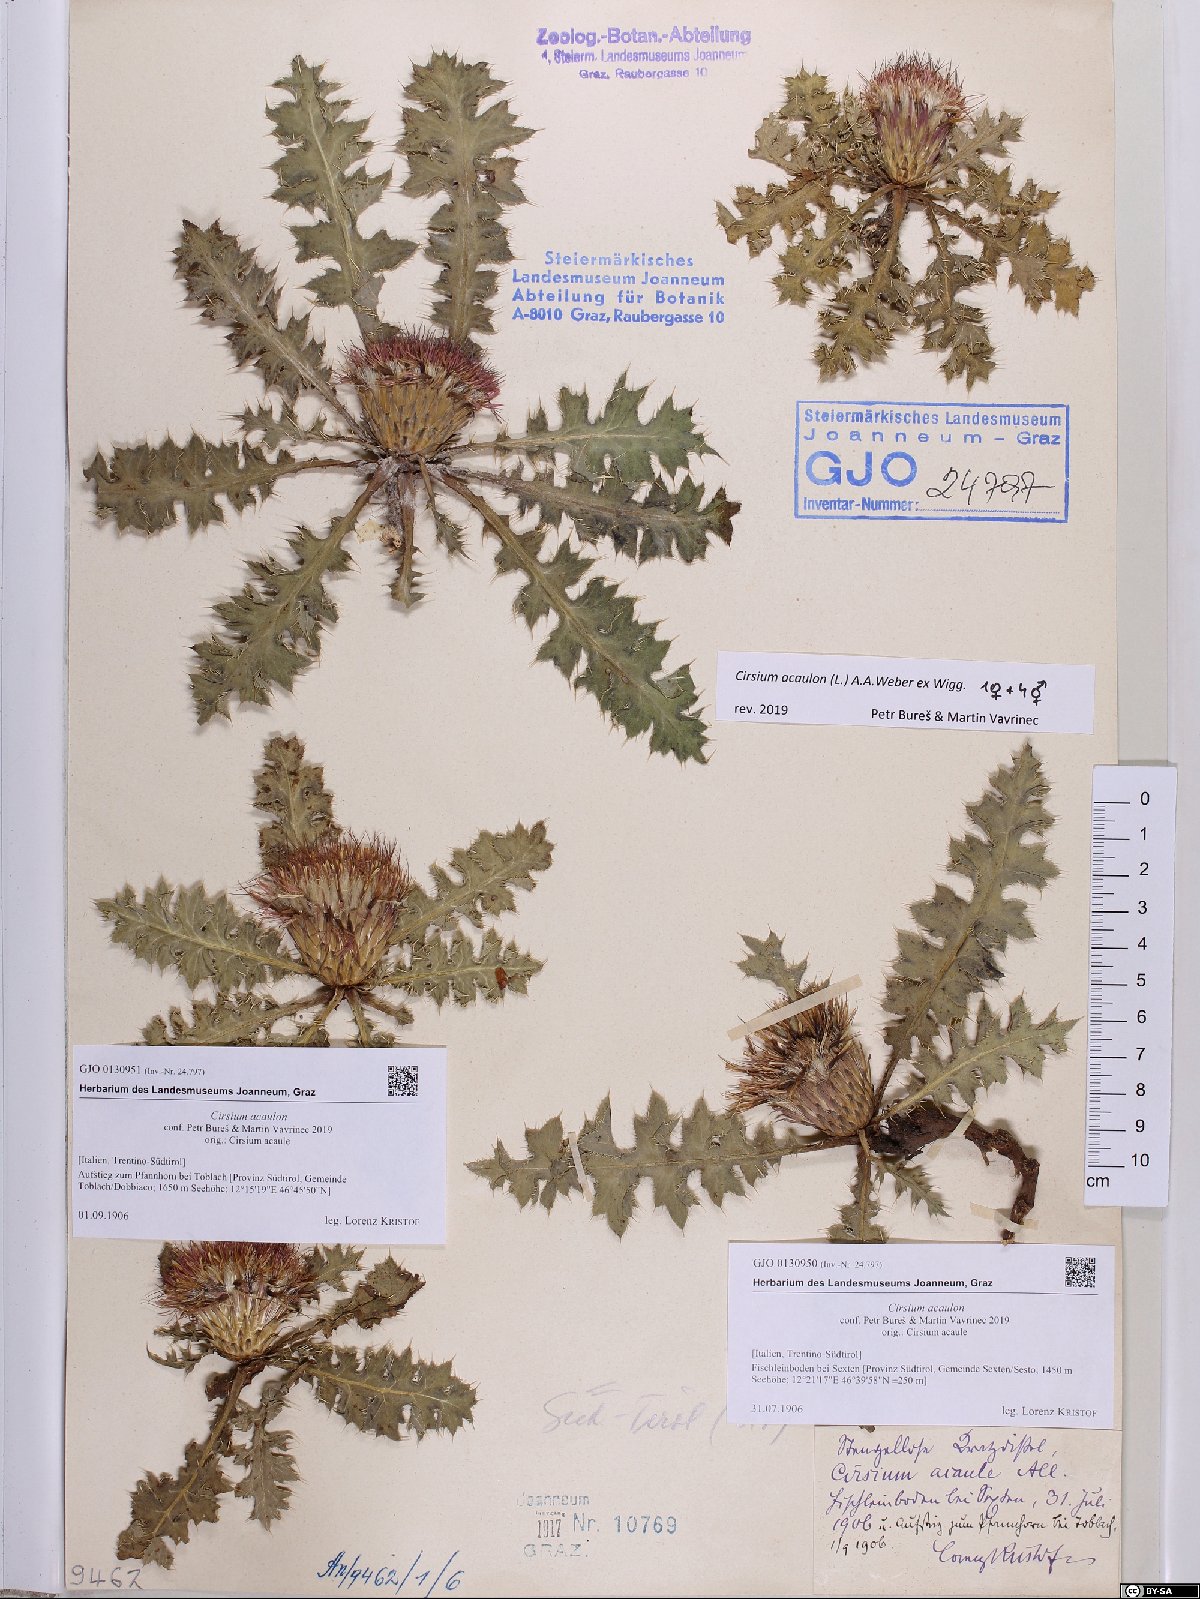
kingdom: Plantae
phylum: Tracheophyta
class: Magnoliopsida
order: Asterales
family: Asteraceae
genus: Cirsium
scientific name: Cirsium acaulon
